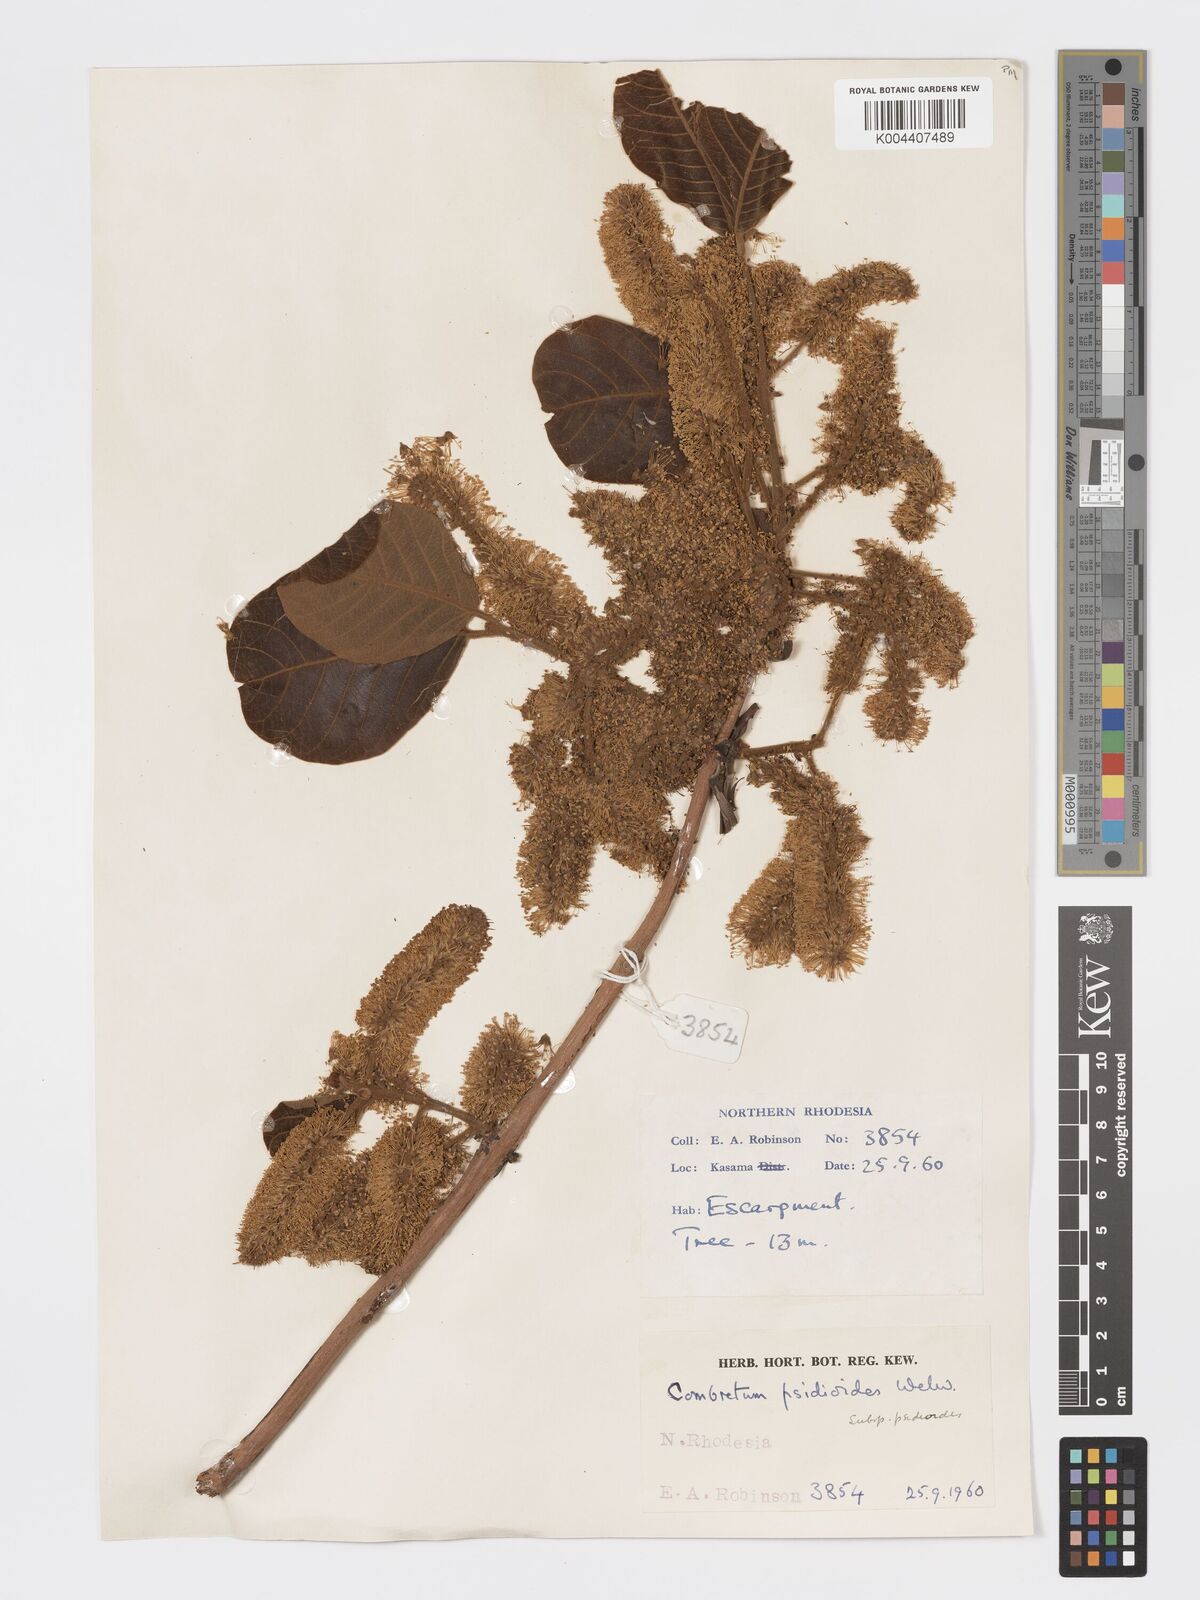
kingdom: Plantae
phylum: Tracheophyta
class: Magnoliopsida
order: Myrtales
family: Combretaceae
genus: Combretum
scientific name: Combretum psidioides
